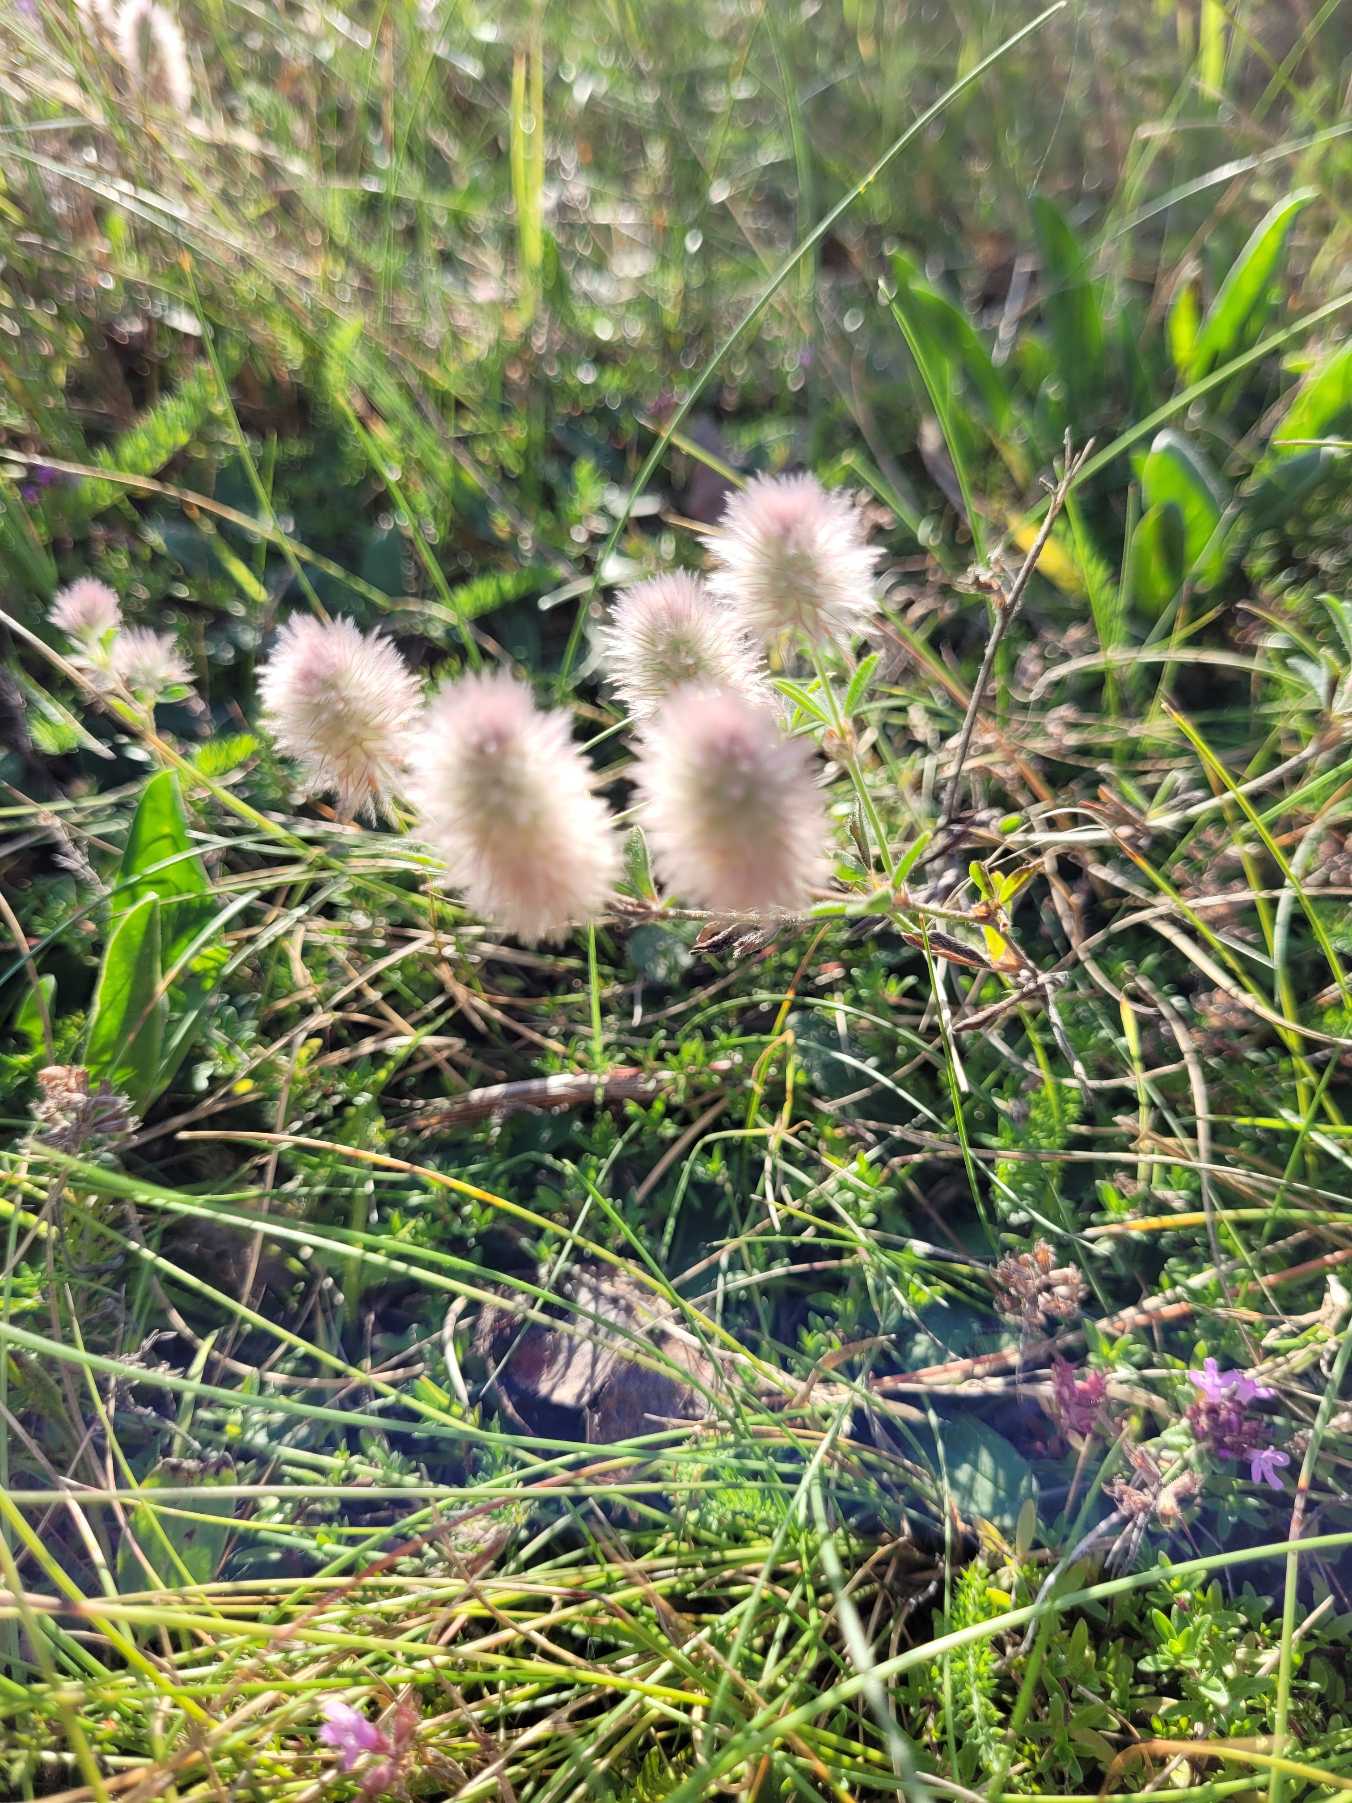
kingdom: Plantae
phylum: Tracheophyta
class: Magnoliopsida
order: Fabales
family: Fabaceae
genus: Trifolium
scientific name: Trifolium arvense
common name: Hare-kløver
